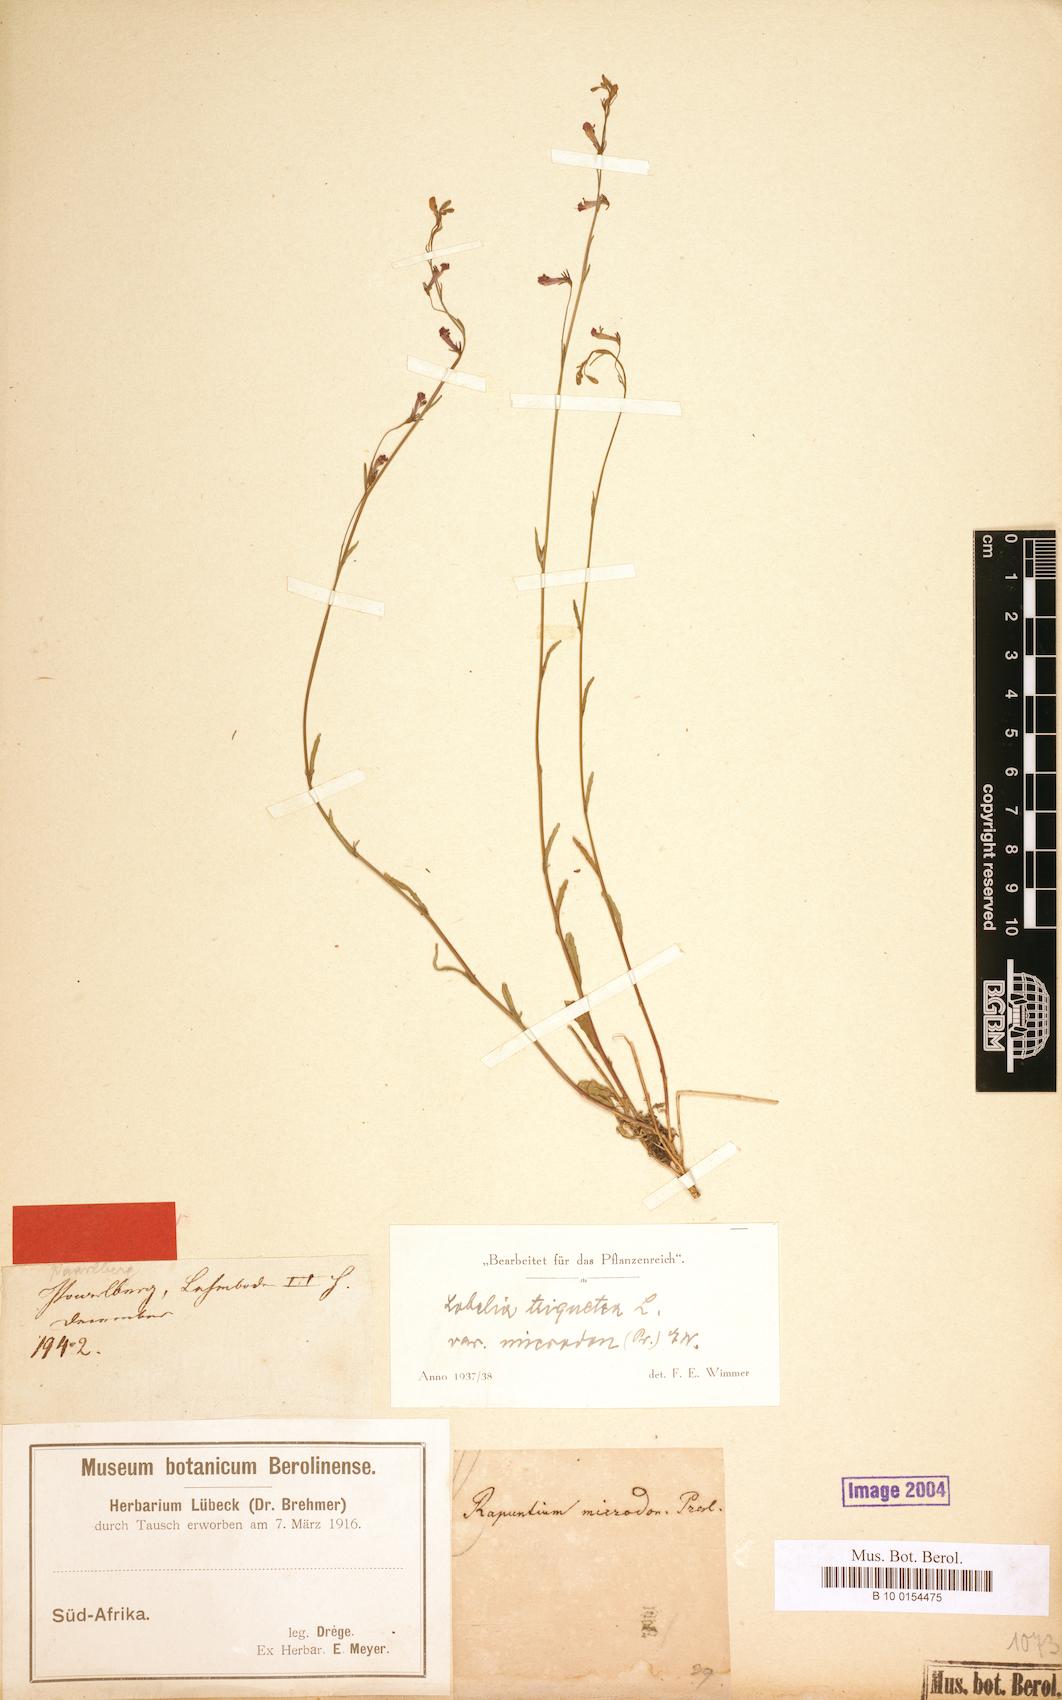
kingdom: Plantae
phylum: Tracheophyta
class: Magnoliopsida
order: Asterales
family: Campanulaceae
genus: Lobelia
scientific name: Lobelia comosa
